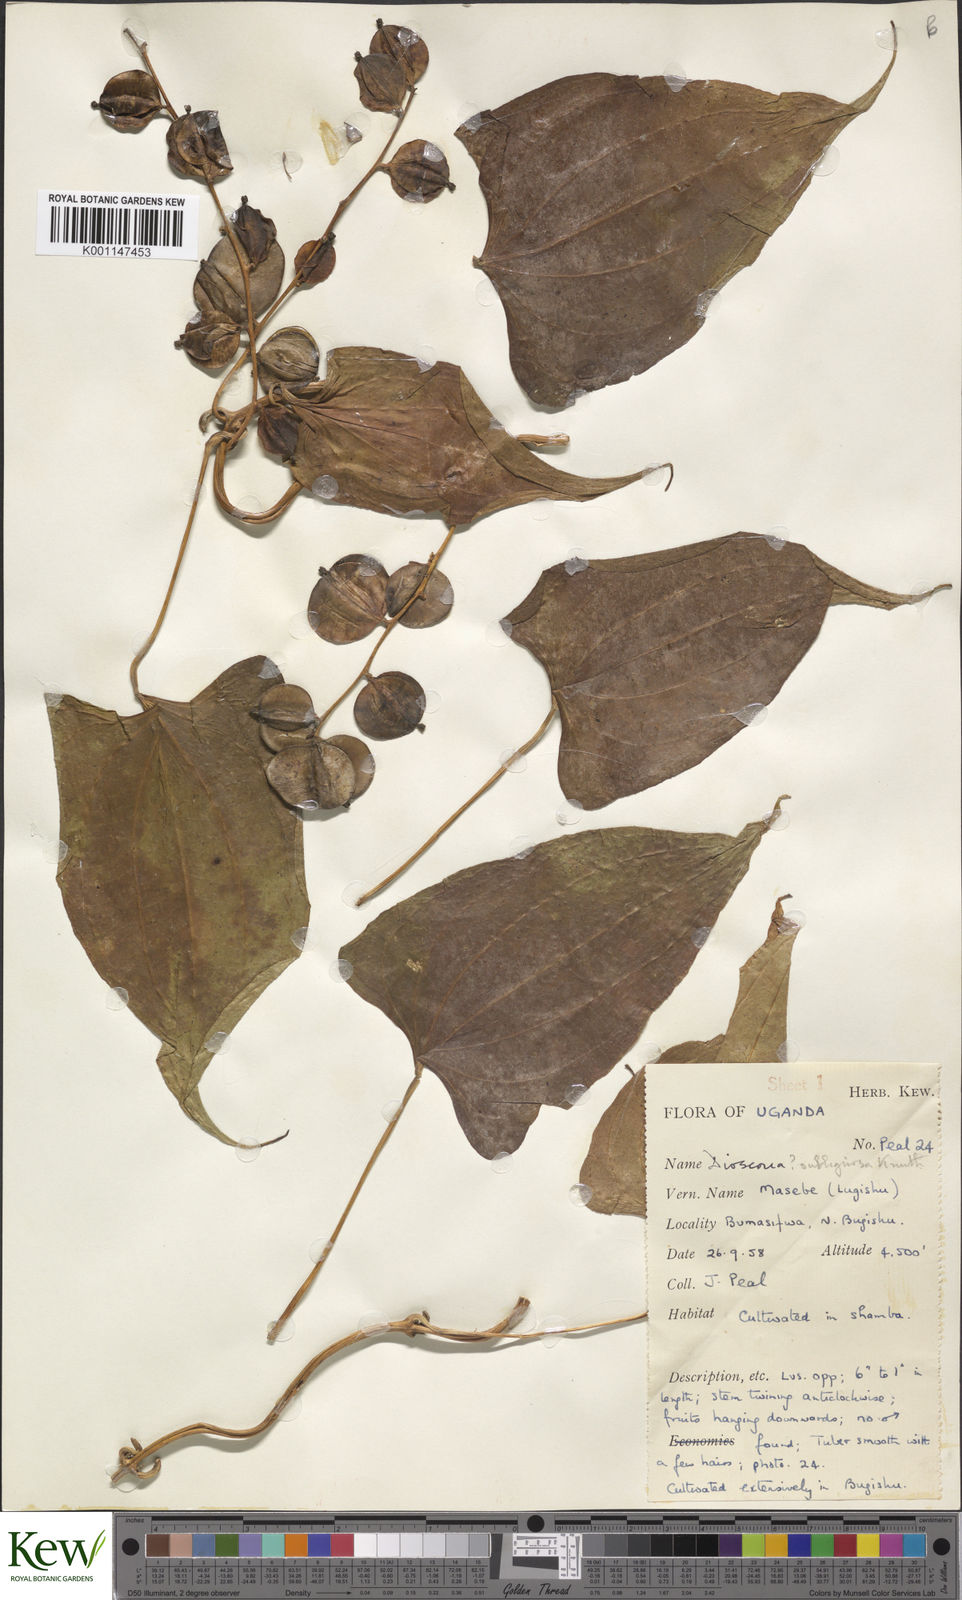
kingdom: Plantae
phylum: Tracheophyta
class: Liliopsida
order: Dioscoreales
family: Dioscoreaceae
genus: Dioscorea
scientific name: Dioscorea
